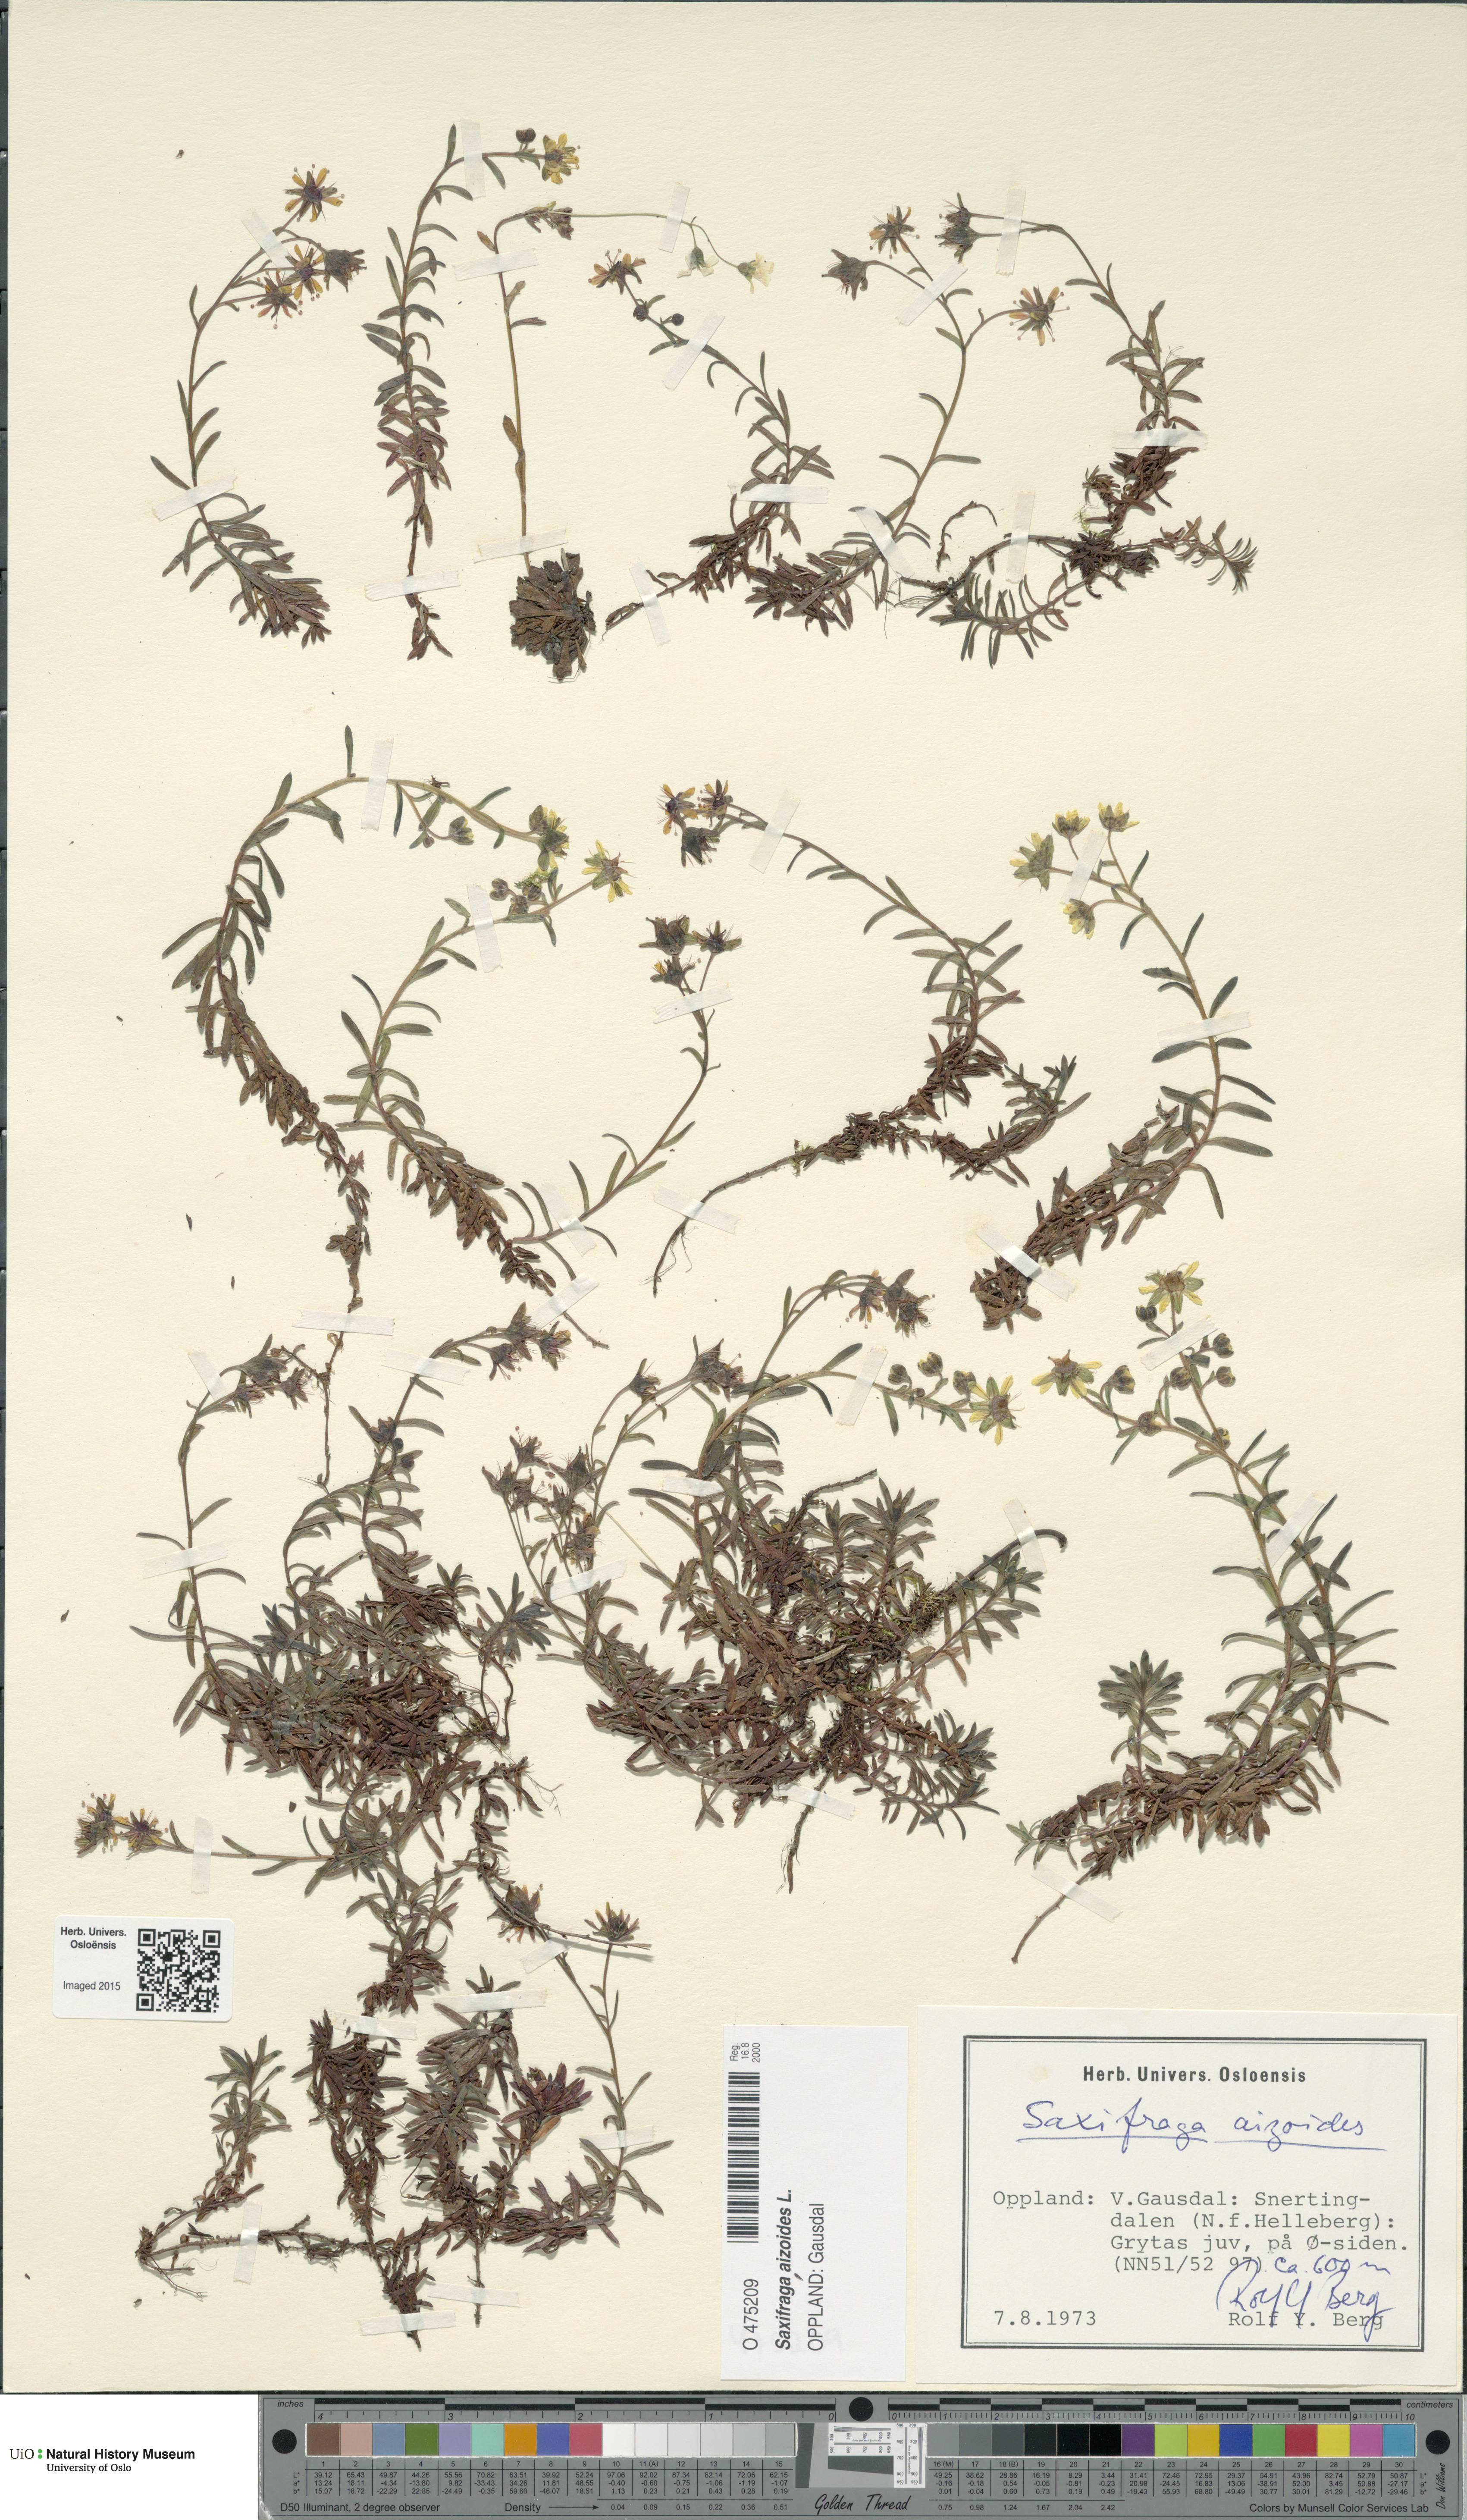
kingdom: Plantae
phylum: Tracheophyta
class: Magnoliopsida
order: Saxifragales
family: Saxifragaceae
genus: Saxifraga
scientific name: Saxifraga aizoides
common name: Yellow mountain saxifrage
